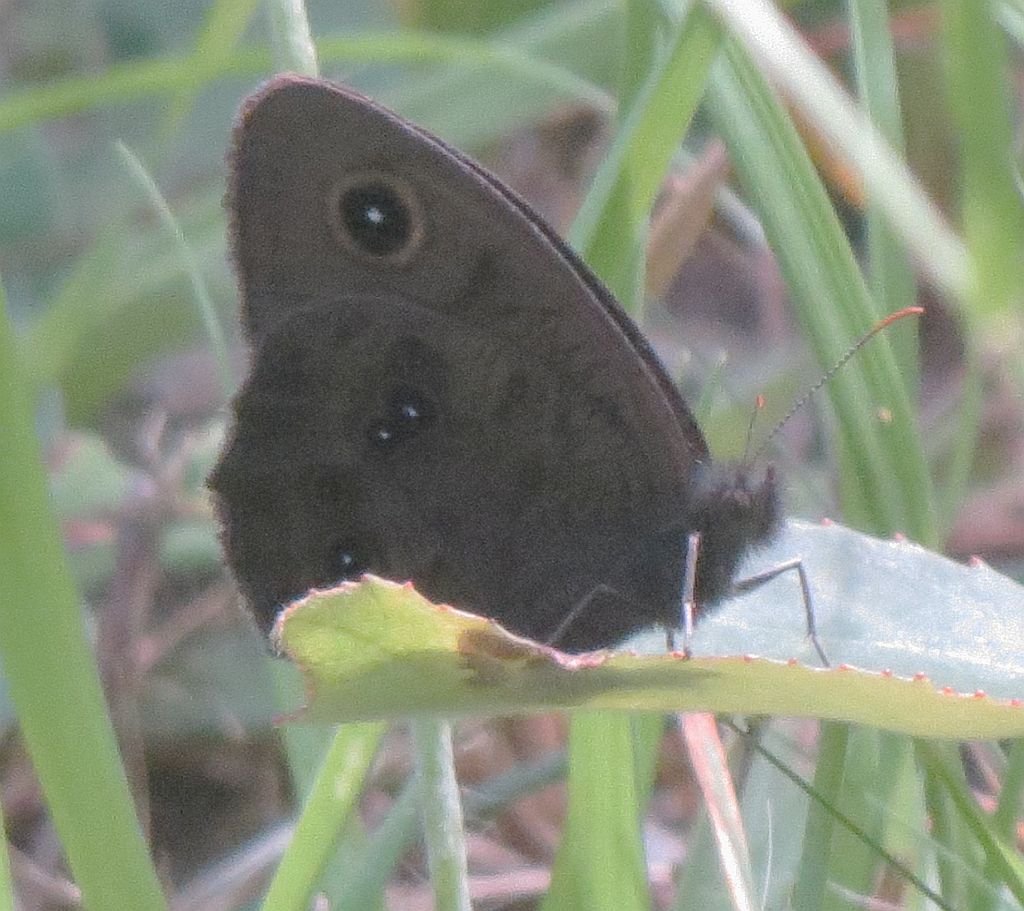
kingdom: Animalia
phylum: Arthropoda
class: Insecta
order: Lepidoptera
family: Nymphalidae
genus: Cercyonis
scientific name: Cercyonis pegala
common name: Common Wood-Nymph
